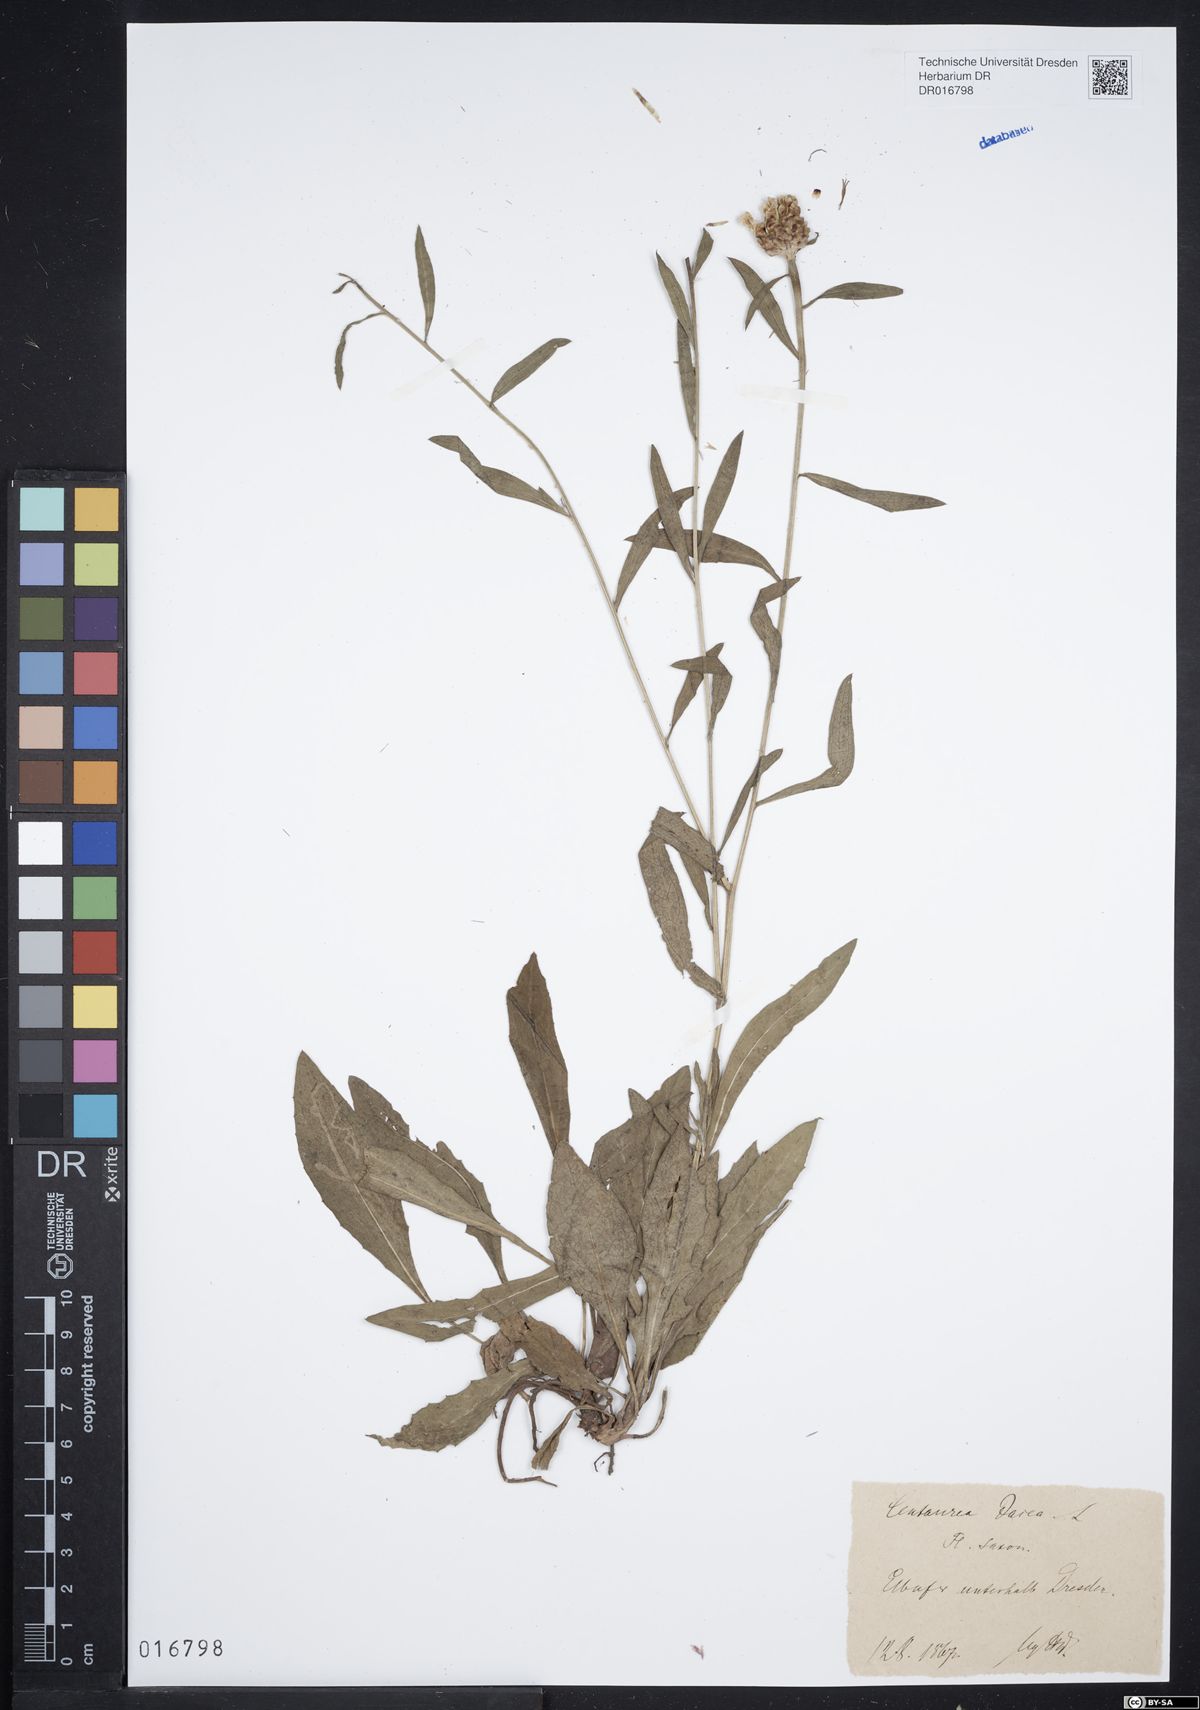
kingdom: Plantae
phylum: Tracheophyta
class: Magnoliopsida
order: Asterales
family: Asteraceae
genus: Centaurea
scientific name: Centaurea jacea
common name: Brown knapweed
